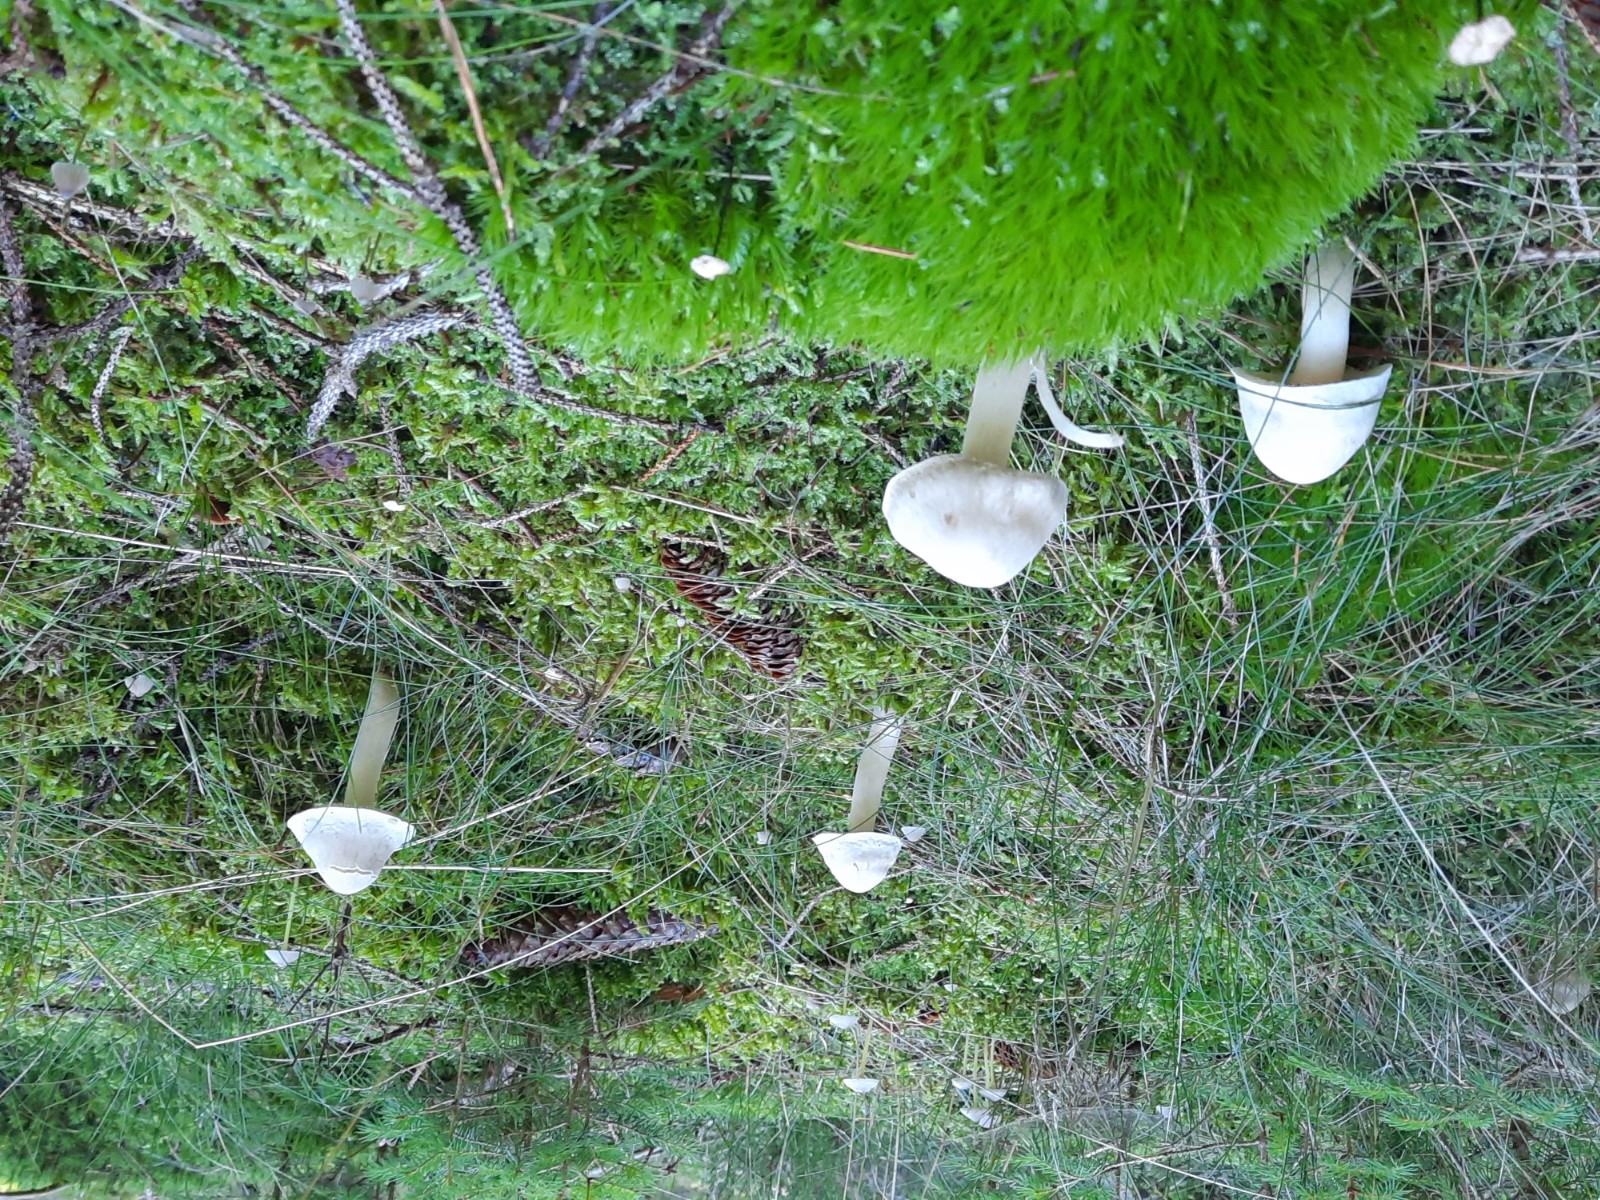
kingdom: Fungi
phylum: Basidiomycota
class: Agaricomycetes
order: Agaricales
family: Tricholomataceae
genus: Tricholoma
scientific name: Tricholoma inamoenum
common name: højstokket ridderhat
